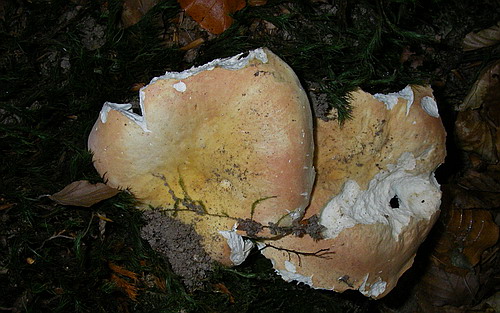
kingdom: Fungi
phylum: Basidiomycota
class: Agaricomycetes
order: Russulales
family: Russulaceae
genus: Russula
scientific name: Russula laeta
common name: orangerosa skørhat
